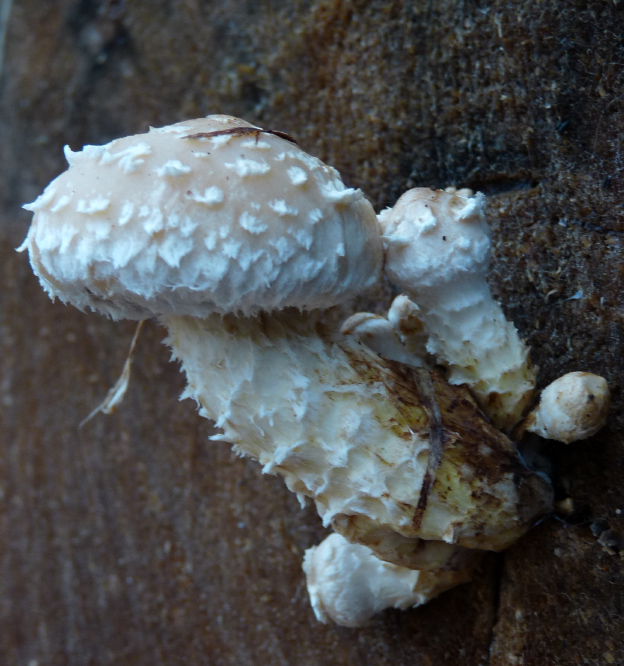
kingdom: Fungi
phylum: Basidiomycota
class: Agaricomycetes
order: Agaricales
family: Strophariaceae
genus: Pholiota
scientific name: Pholiota populnea
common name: poppel-kæmpeskælhat
